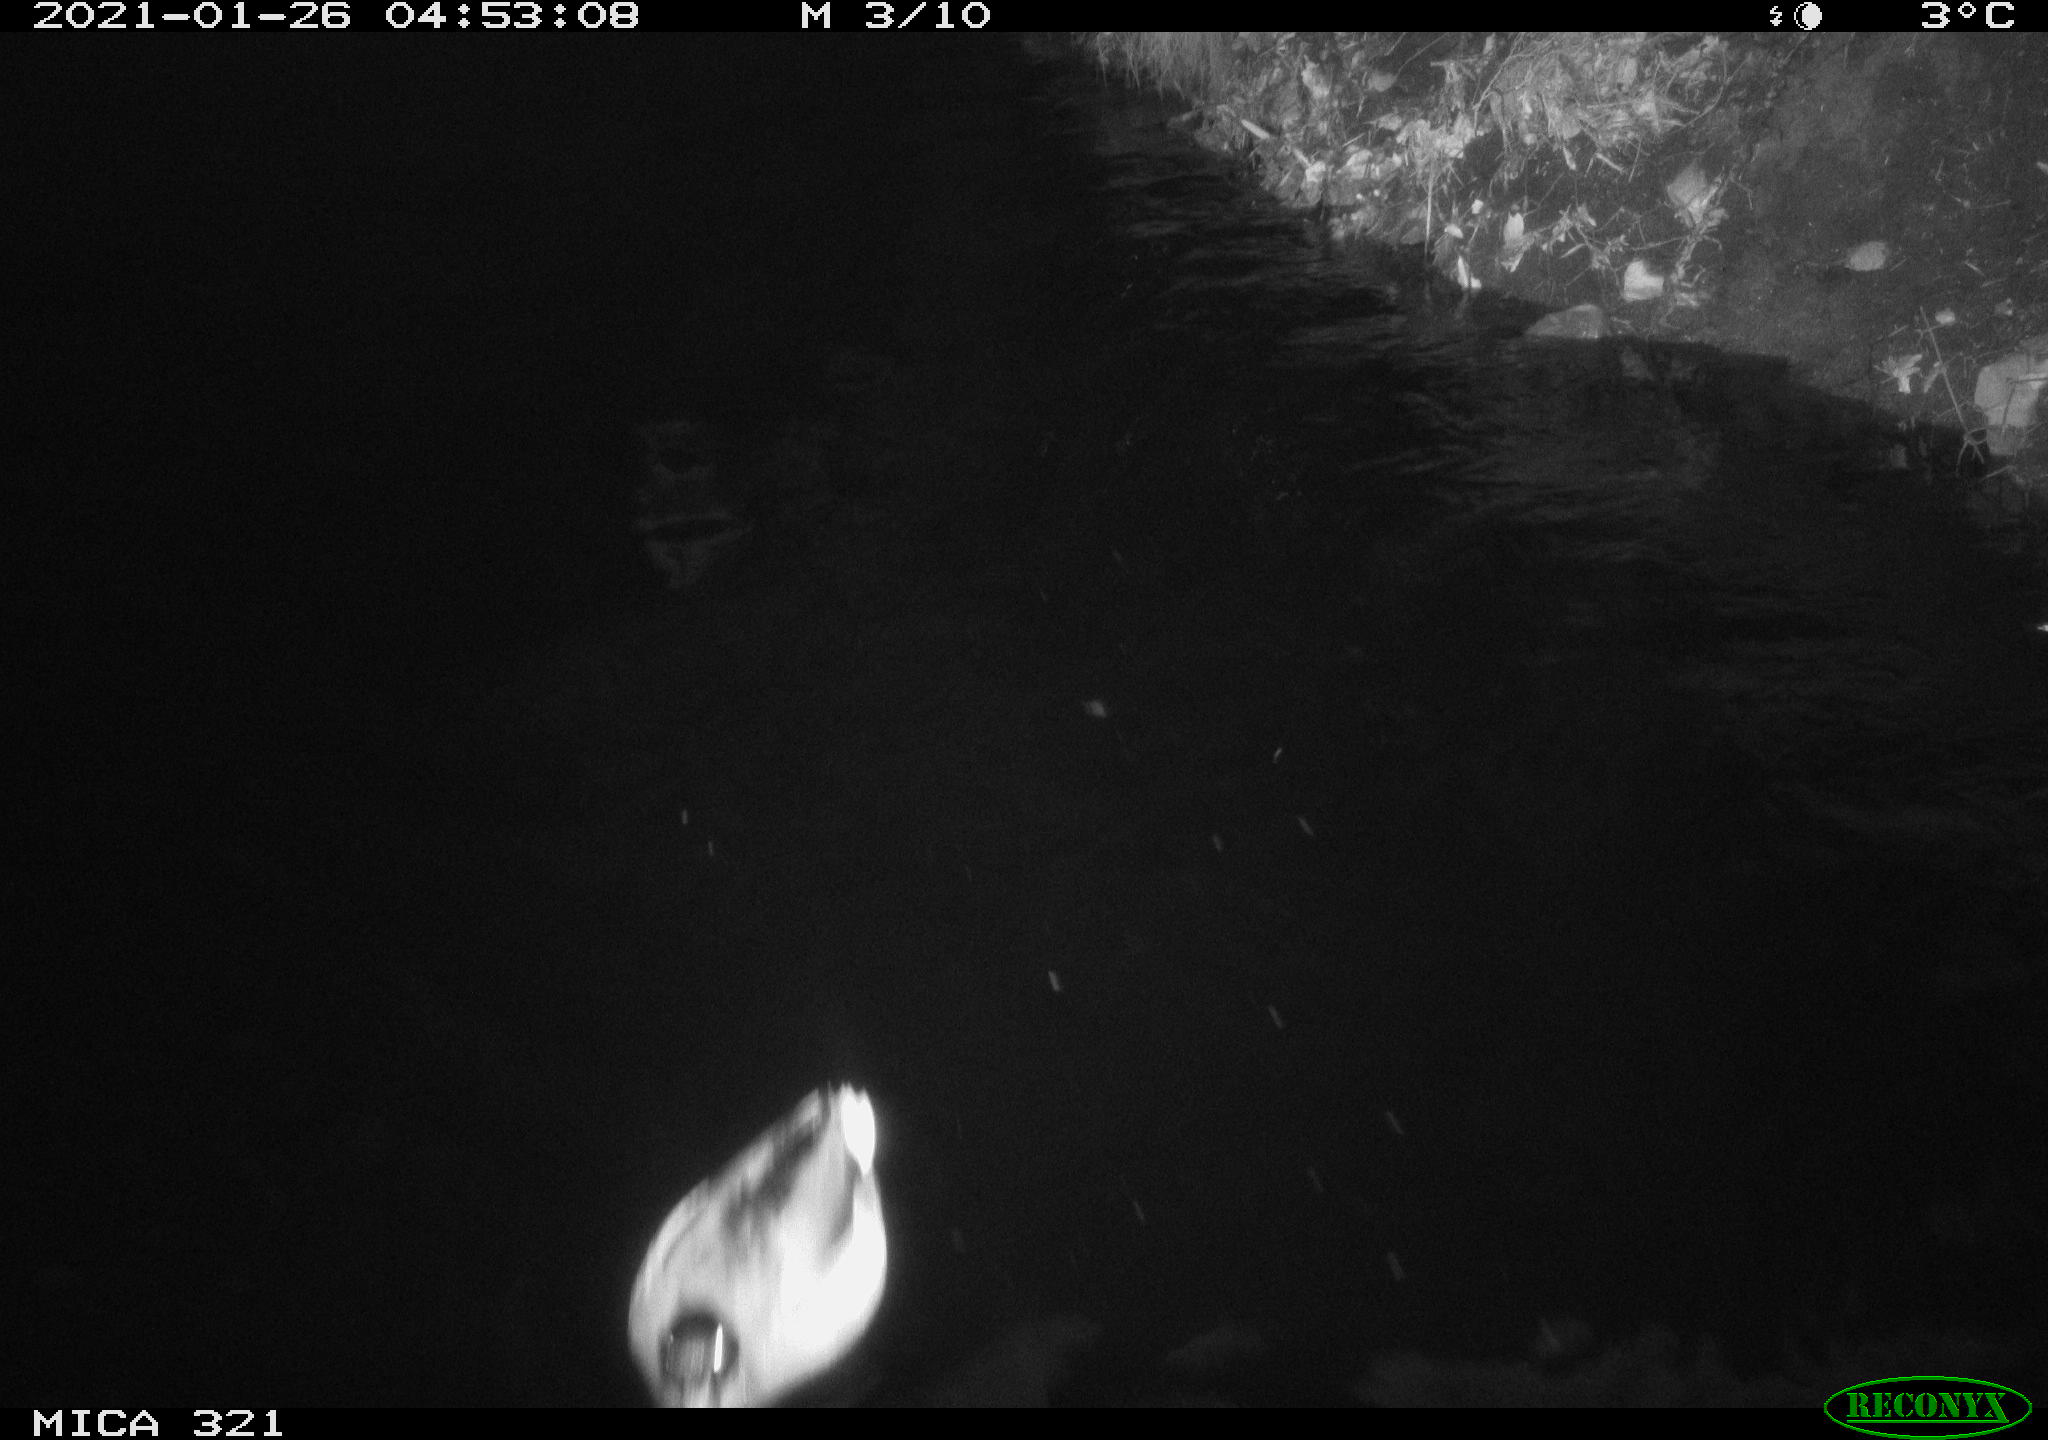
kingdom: Animalia
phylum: Chordata
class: Aves
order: Anseriformes
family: Anatidae
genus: Anas
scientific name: Anas platyrhynchos
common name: Mallard
